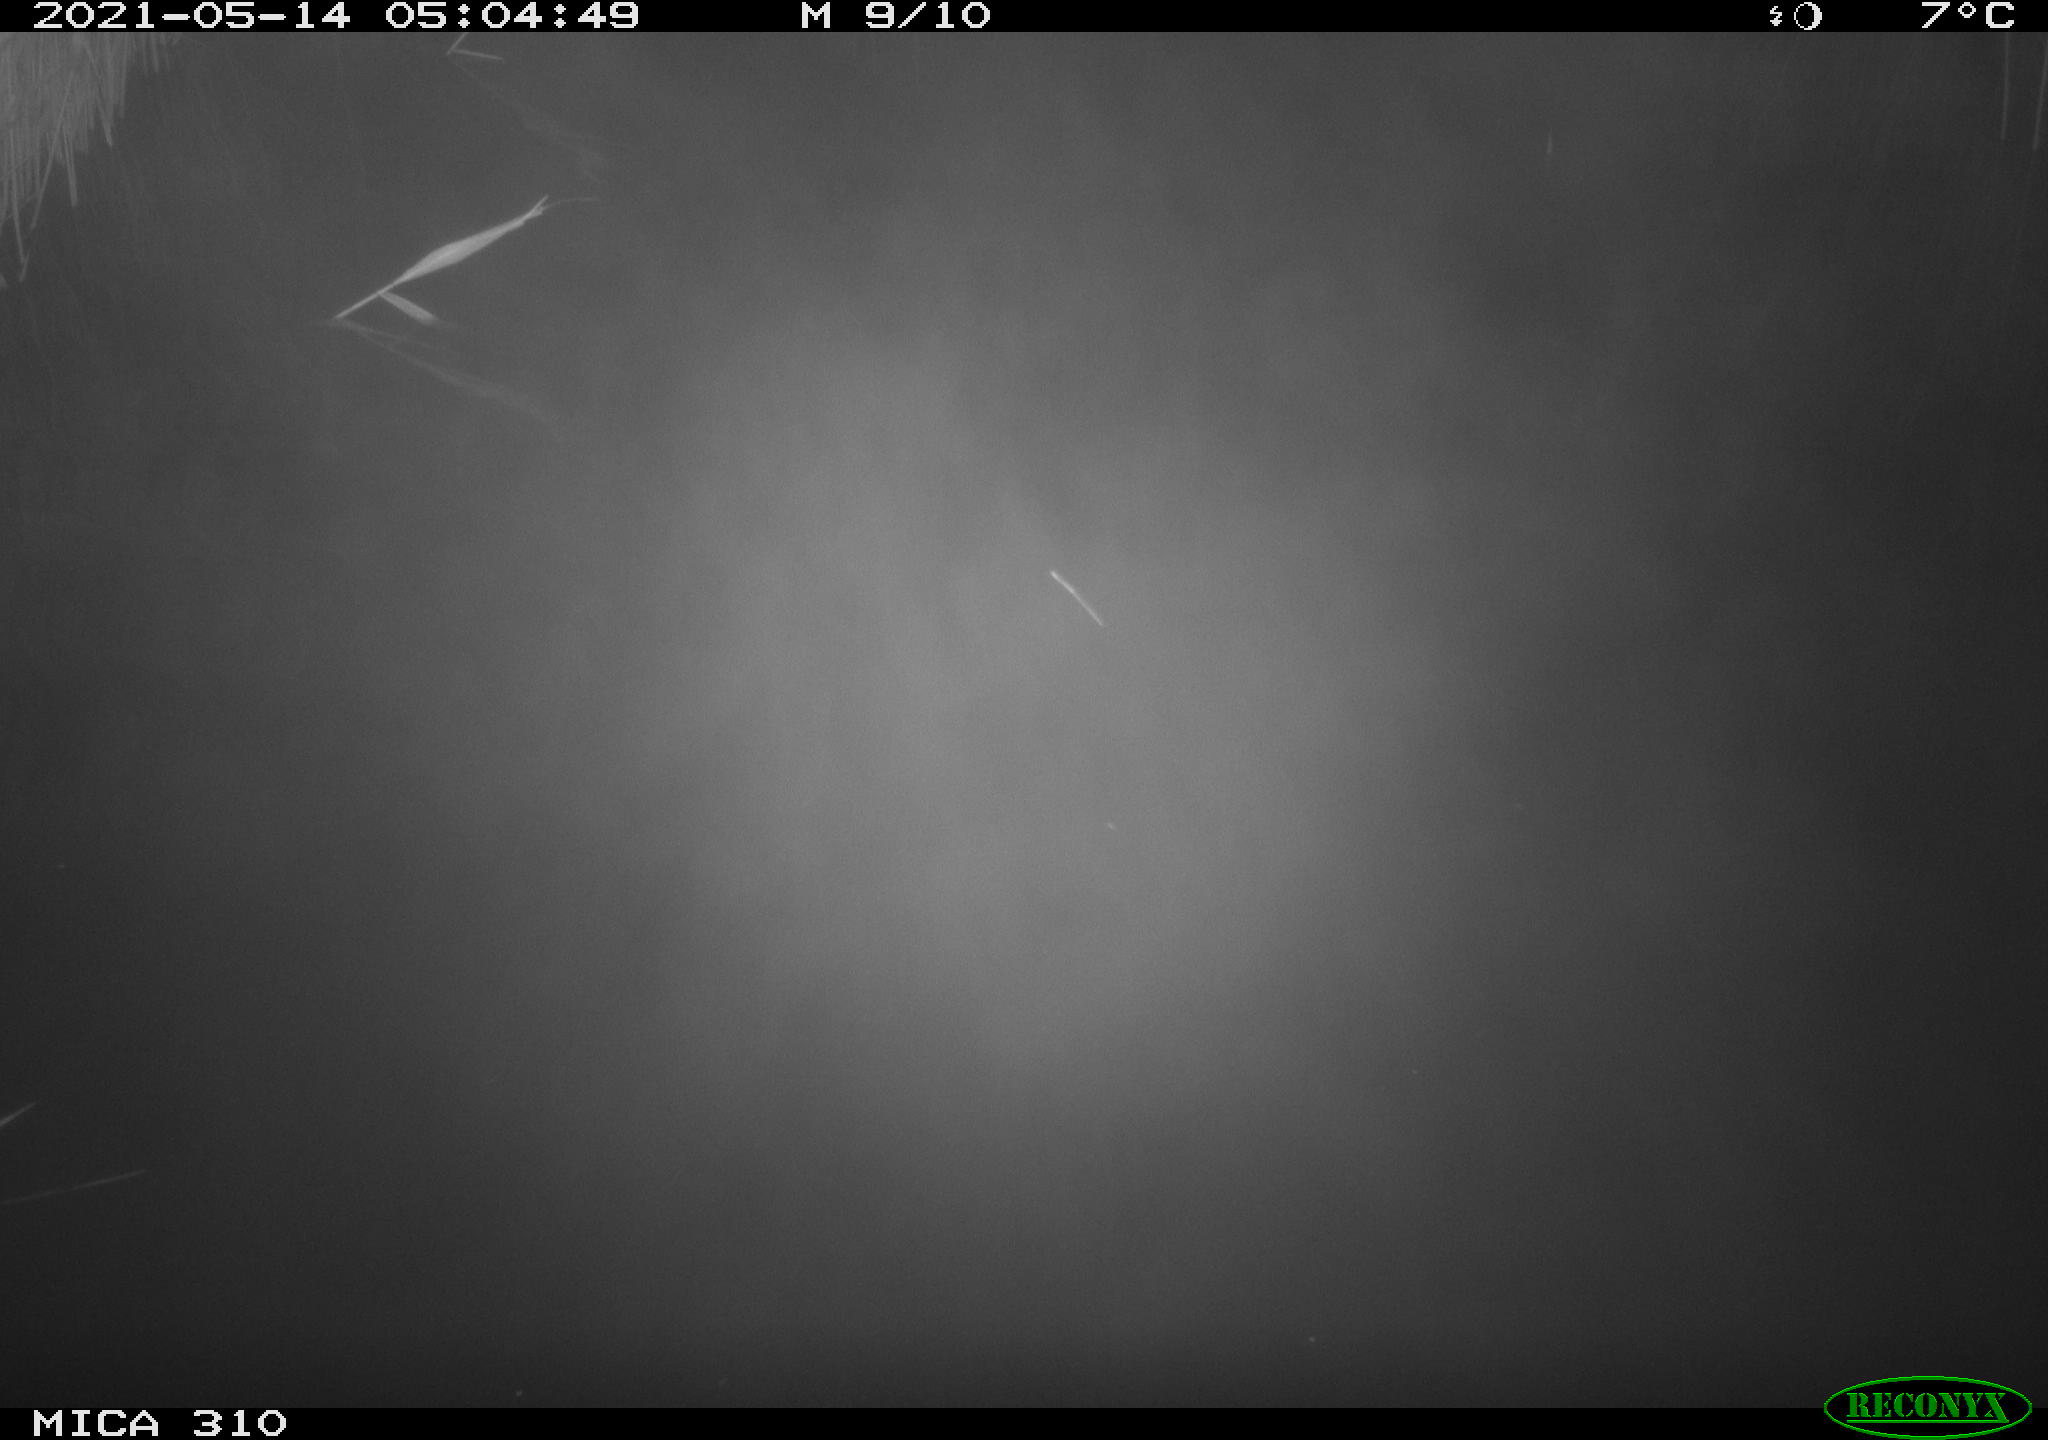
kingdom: Animalia
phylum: Chordata
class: Aves
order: Anseriformes
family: Anatidae
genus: Anas
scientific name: Anas platyrhynchos
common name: Mallard
